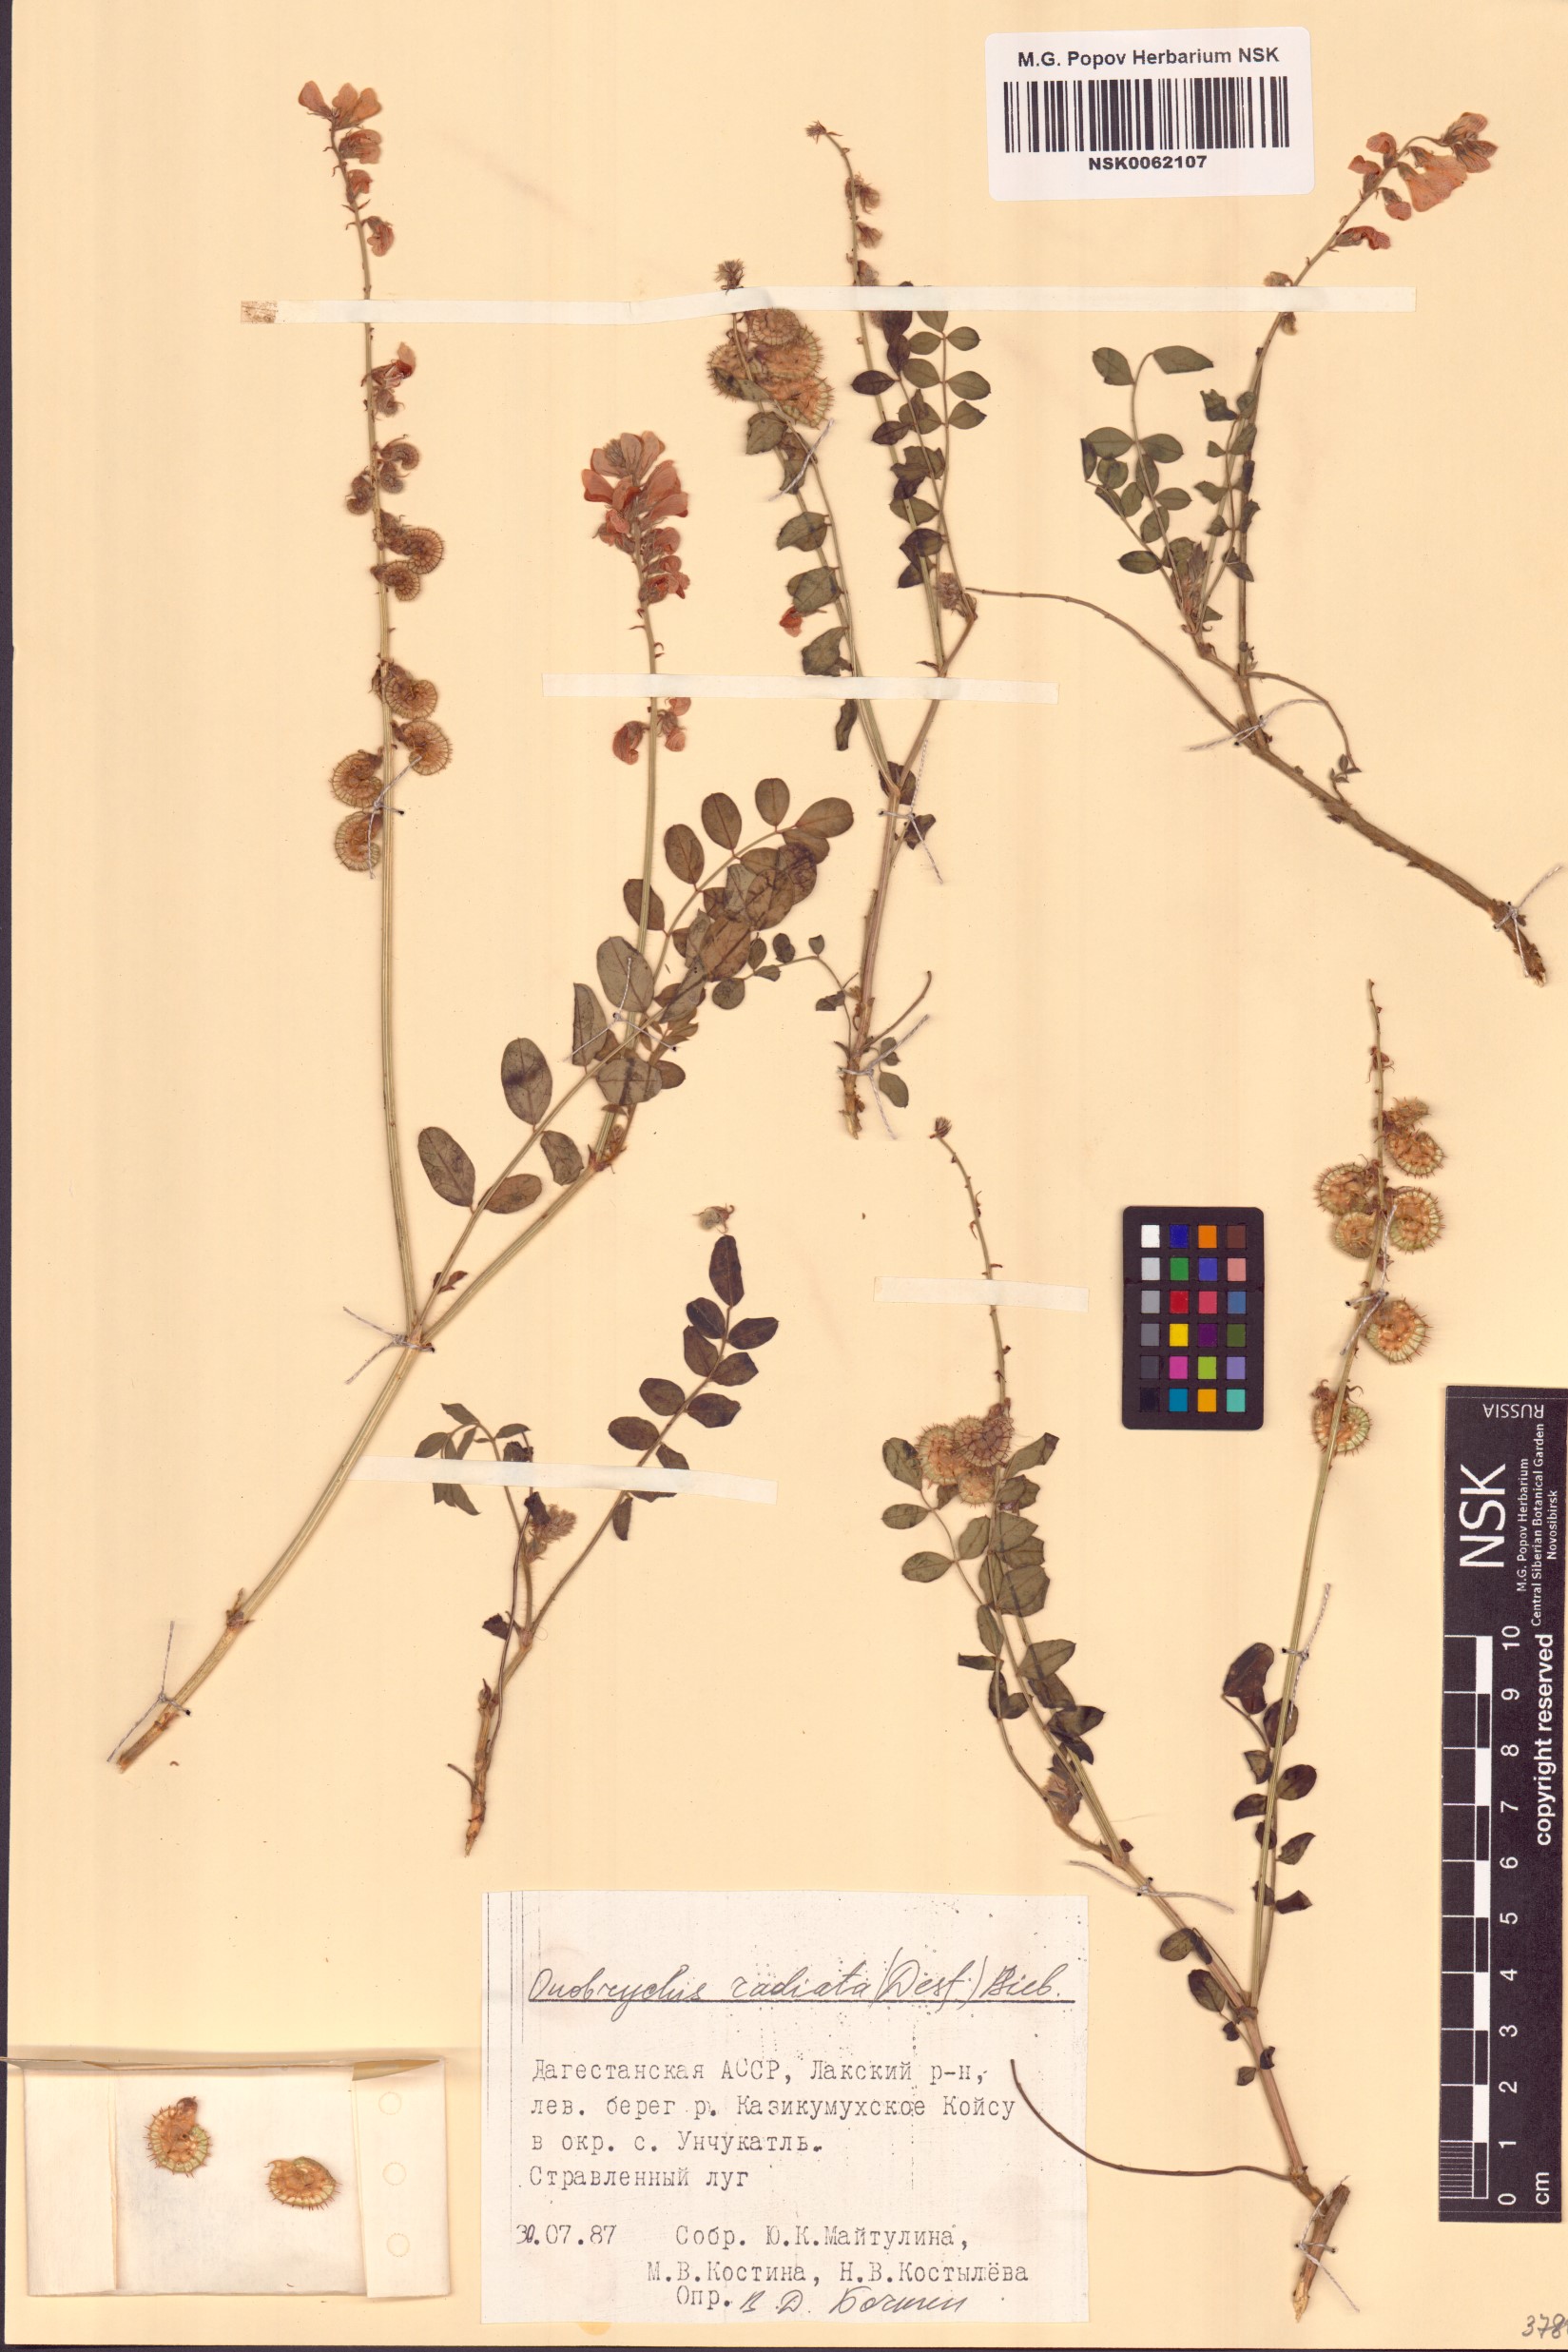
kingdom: Plantae
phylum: Tracheophyta
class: Magnoliopsida
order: Fabales
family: Fabaceae
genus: Onobrychis
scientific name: Onobrychis radiata
